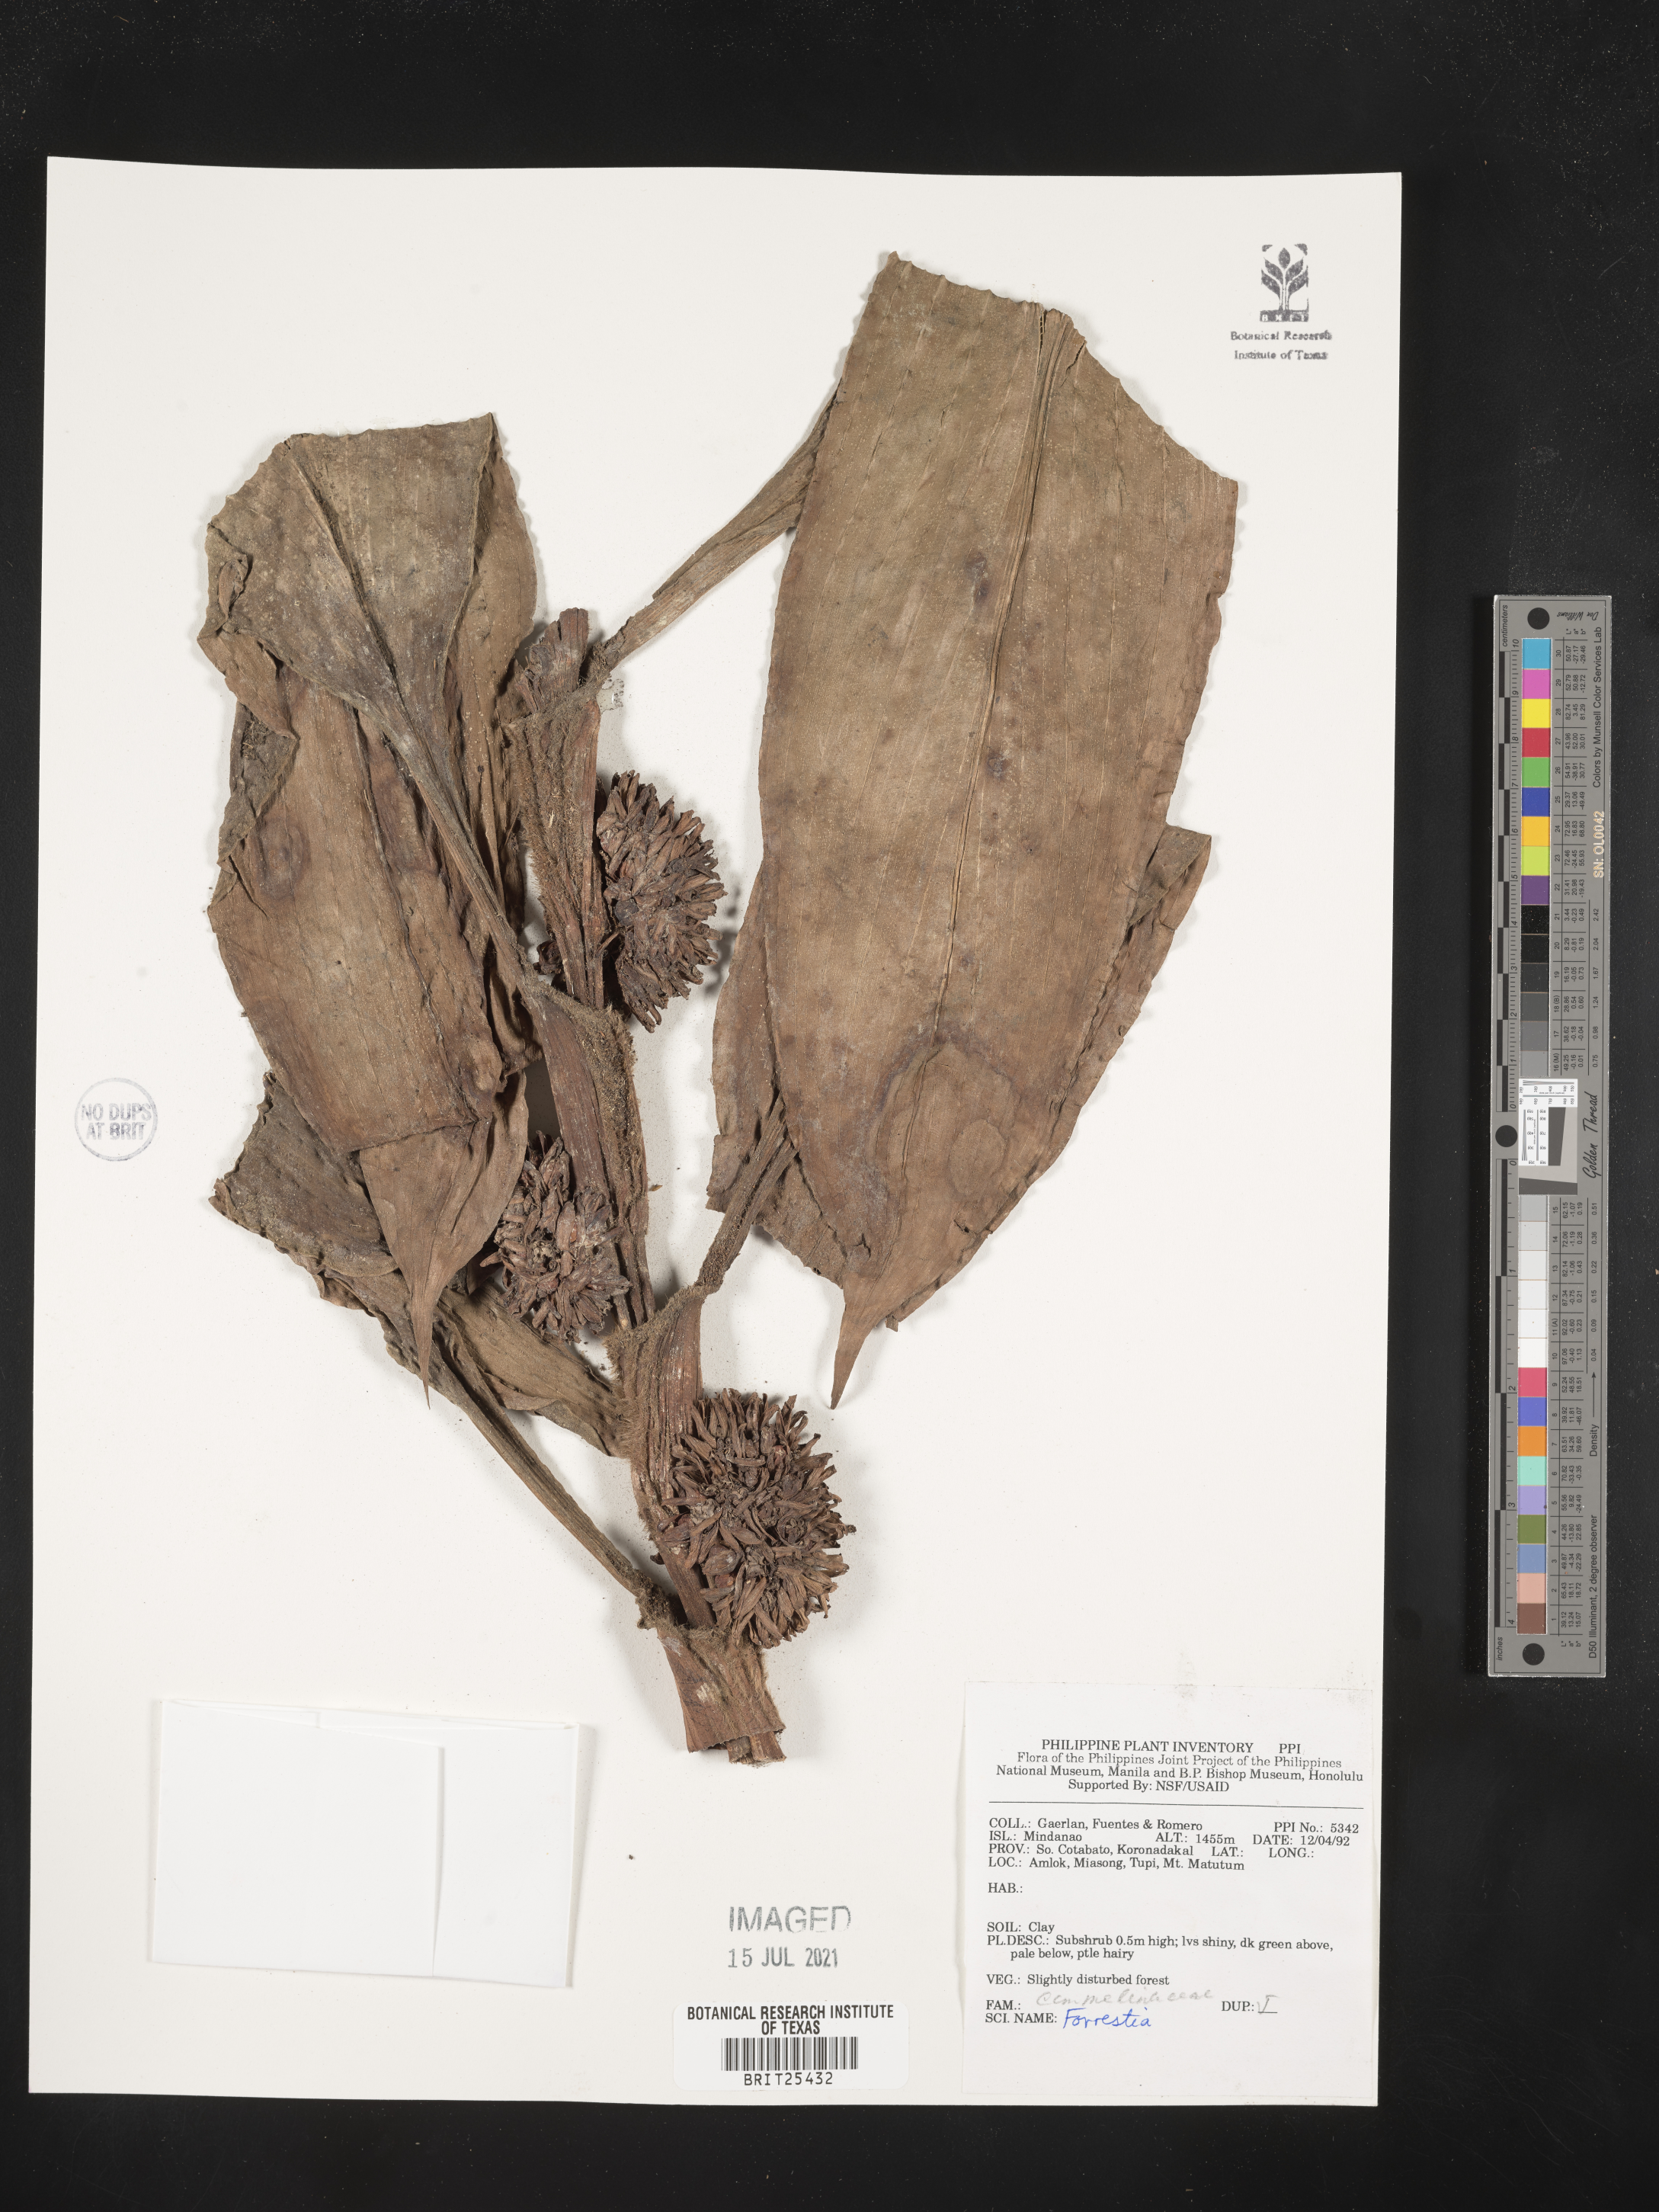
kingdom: Plantae
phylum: Tracheophyta
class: Magnoliopsida
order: Rosales
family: Rhamnaceae
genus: Ceanothus
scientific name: Ceanothus
